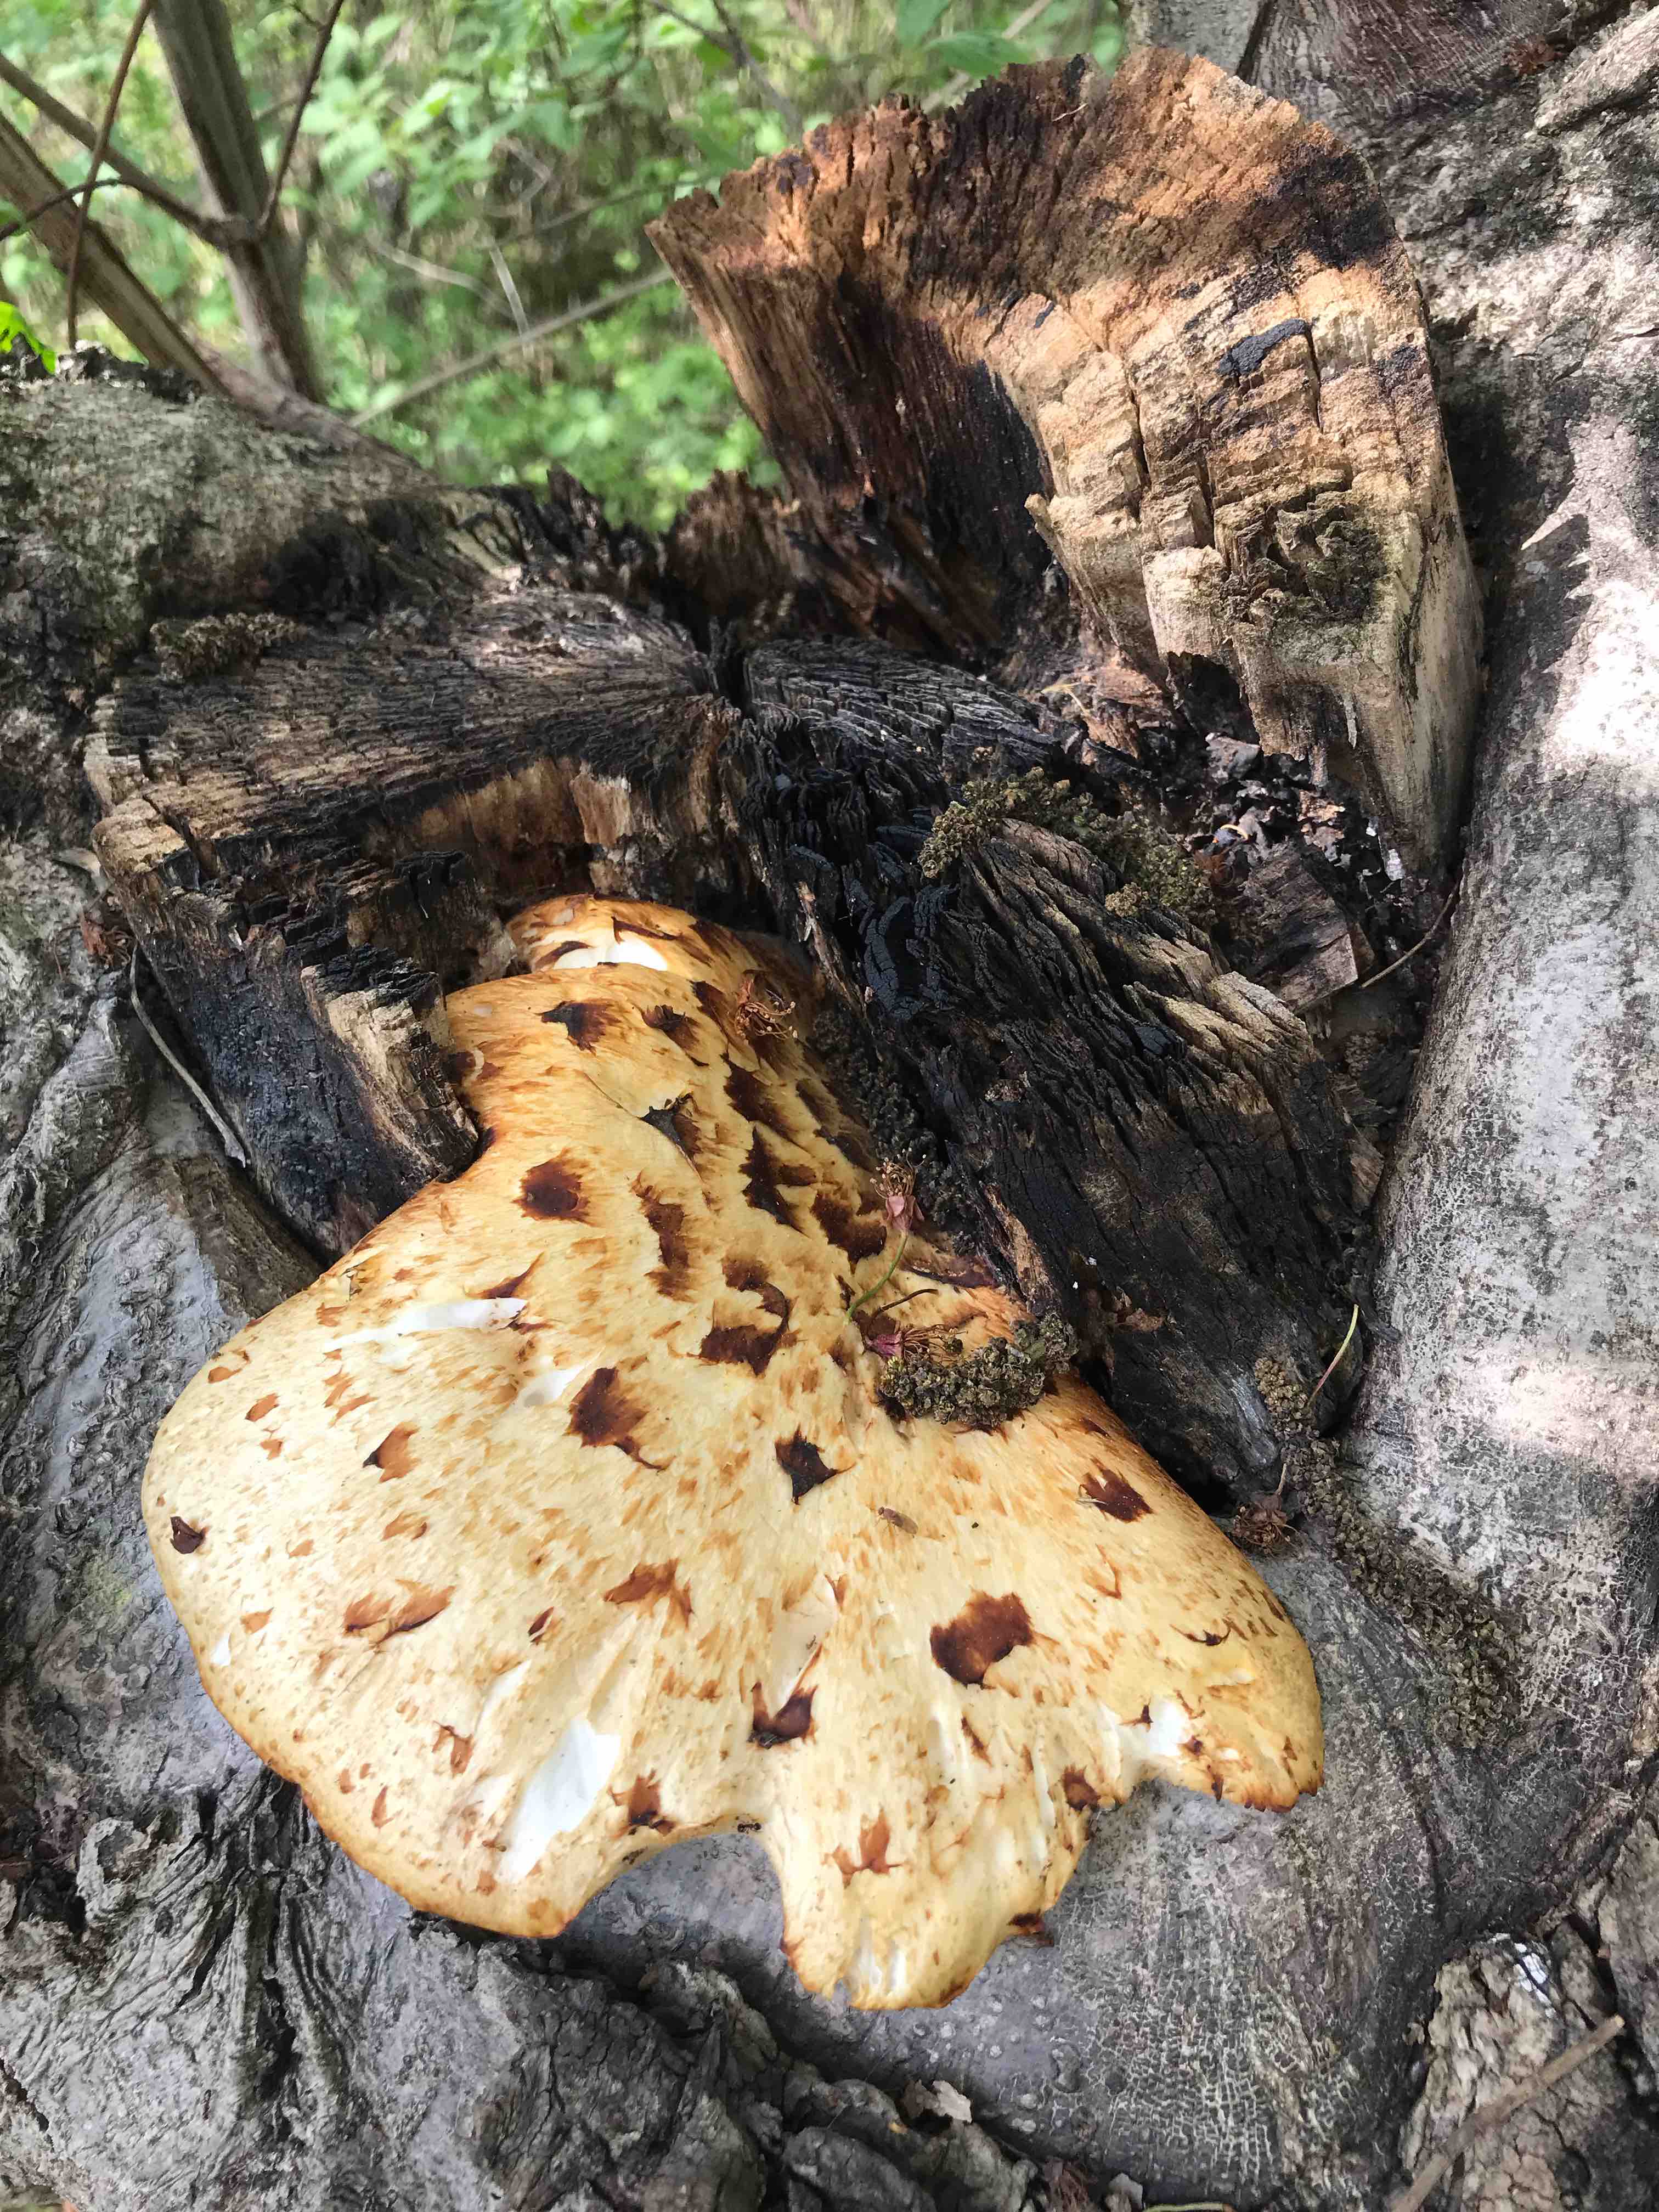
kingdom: Fungi
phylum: Basidiomycota
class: Agaricomycetes
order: Polyporales
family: Polyporaceae
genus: Cerioporus
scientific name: Cerioporus squamosus
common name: skællet stilkporesvamp
